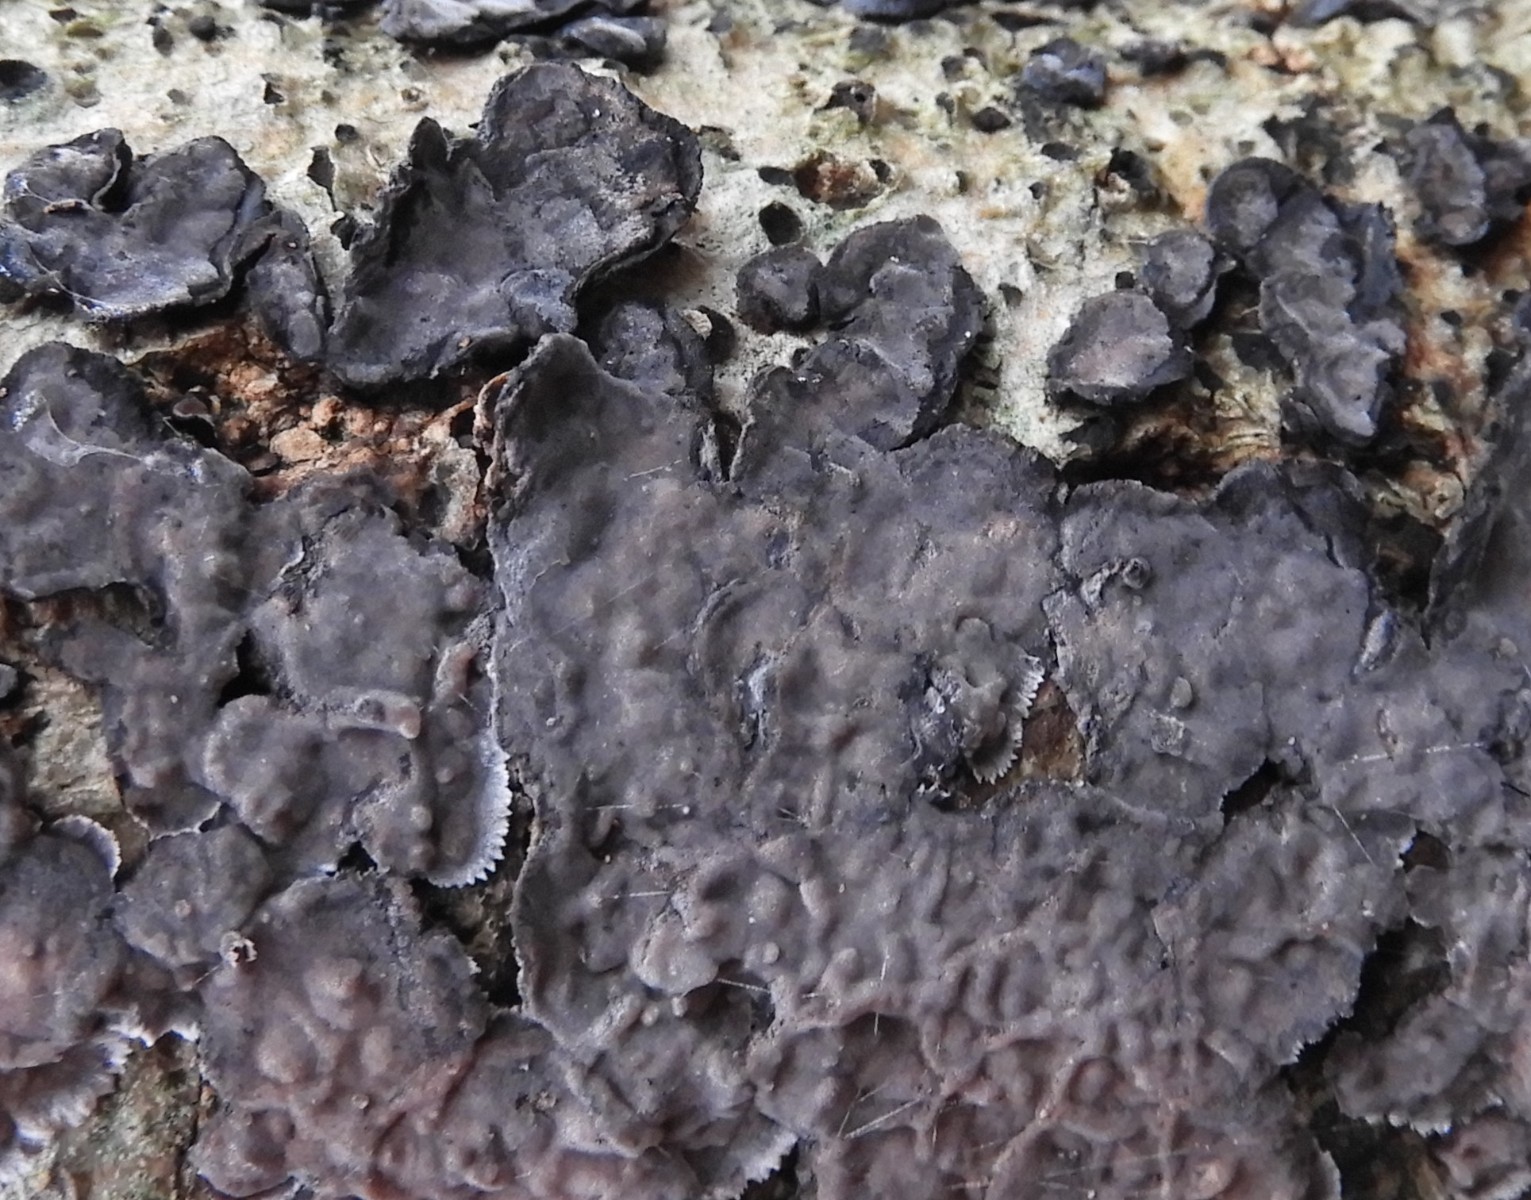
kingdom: Fungi
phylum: Basidiomycota
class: Agaricomycetes
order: Russulales
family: Peniophoraceae
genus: Peniophora
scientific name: Peniophora limitata
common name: mørkrandet voksskind
